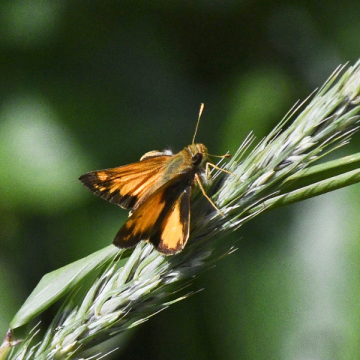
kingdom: Animalia
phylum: Arthropoda
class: Insecta
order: Lepidoptera
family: Hesperiidae
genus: Lon
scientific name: Lon zabulon
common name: Zabulon Skipper
